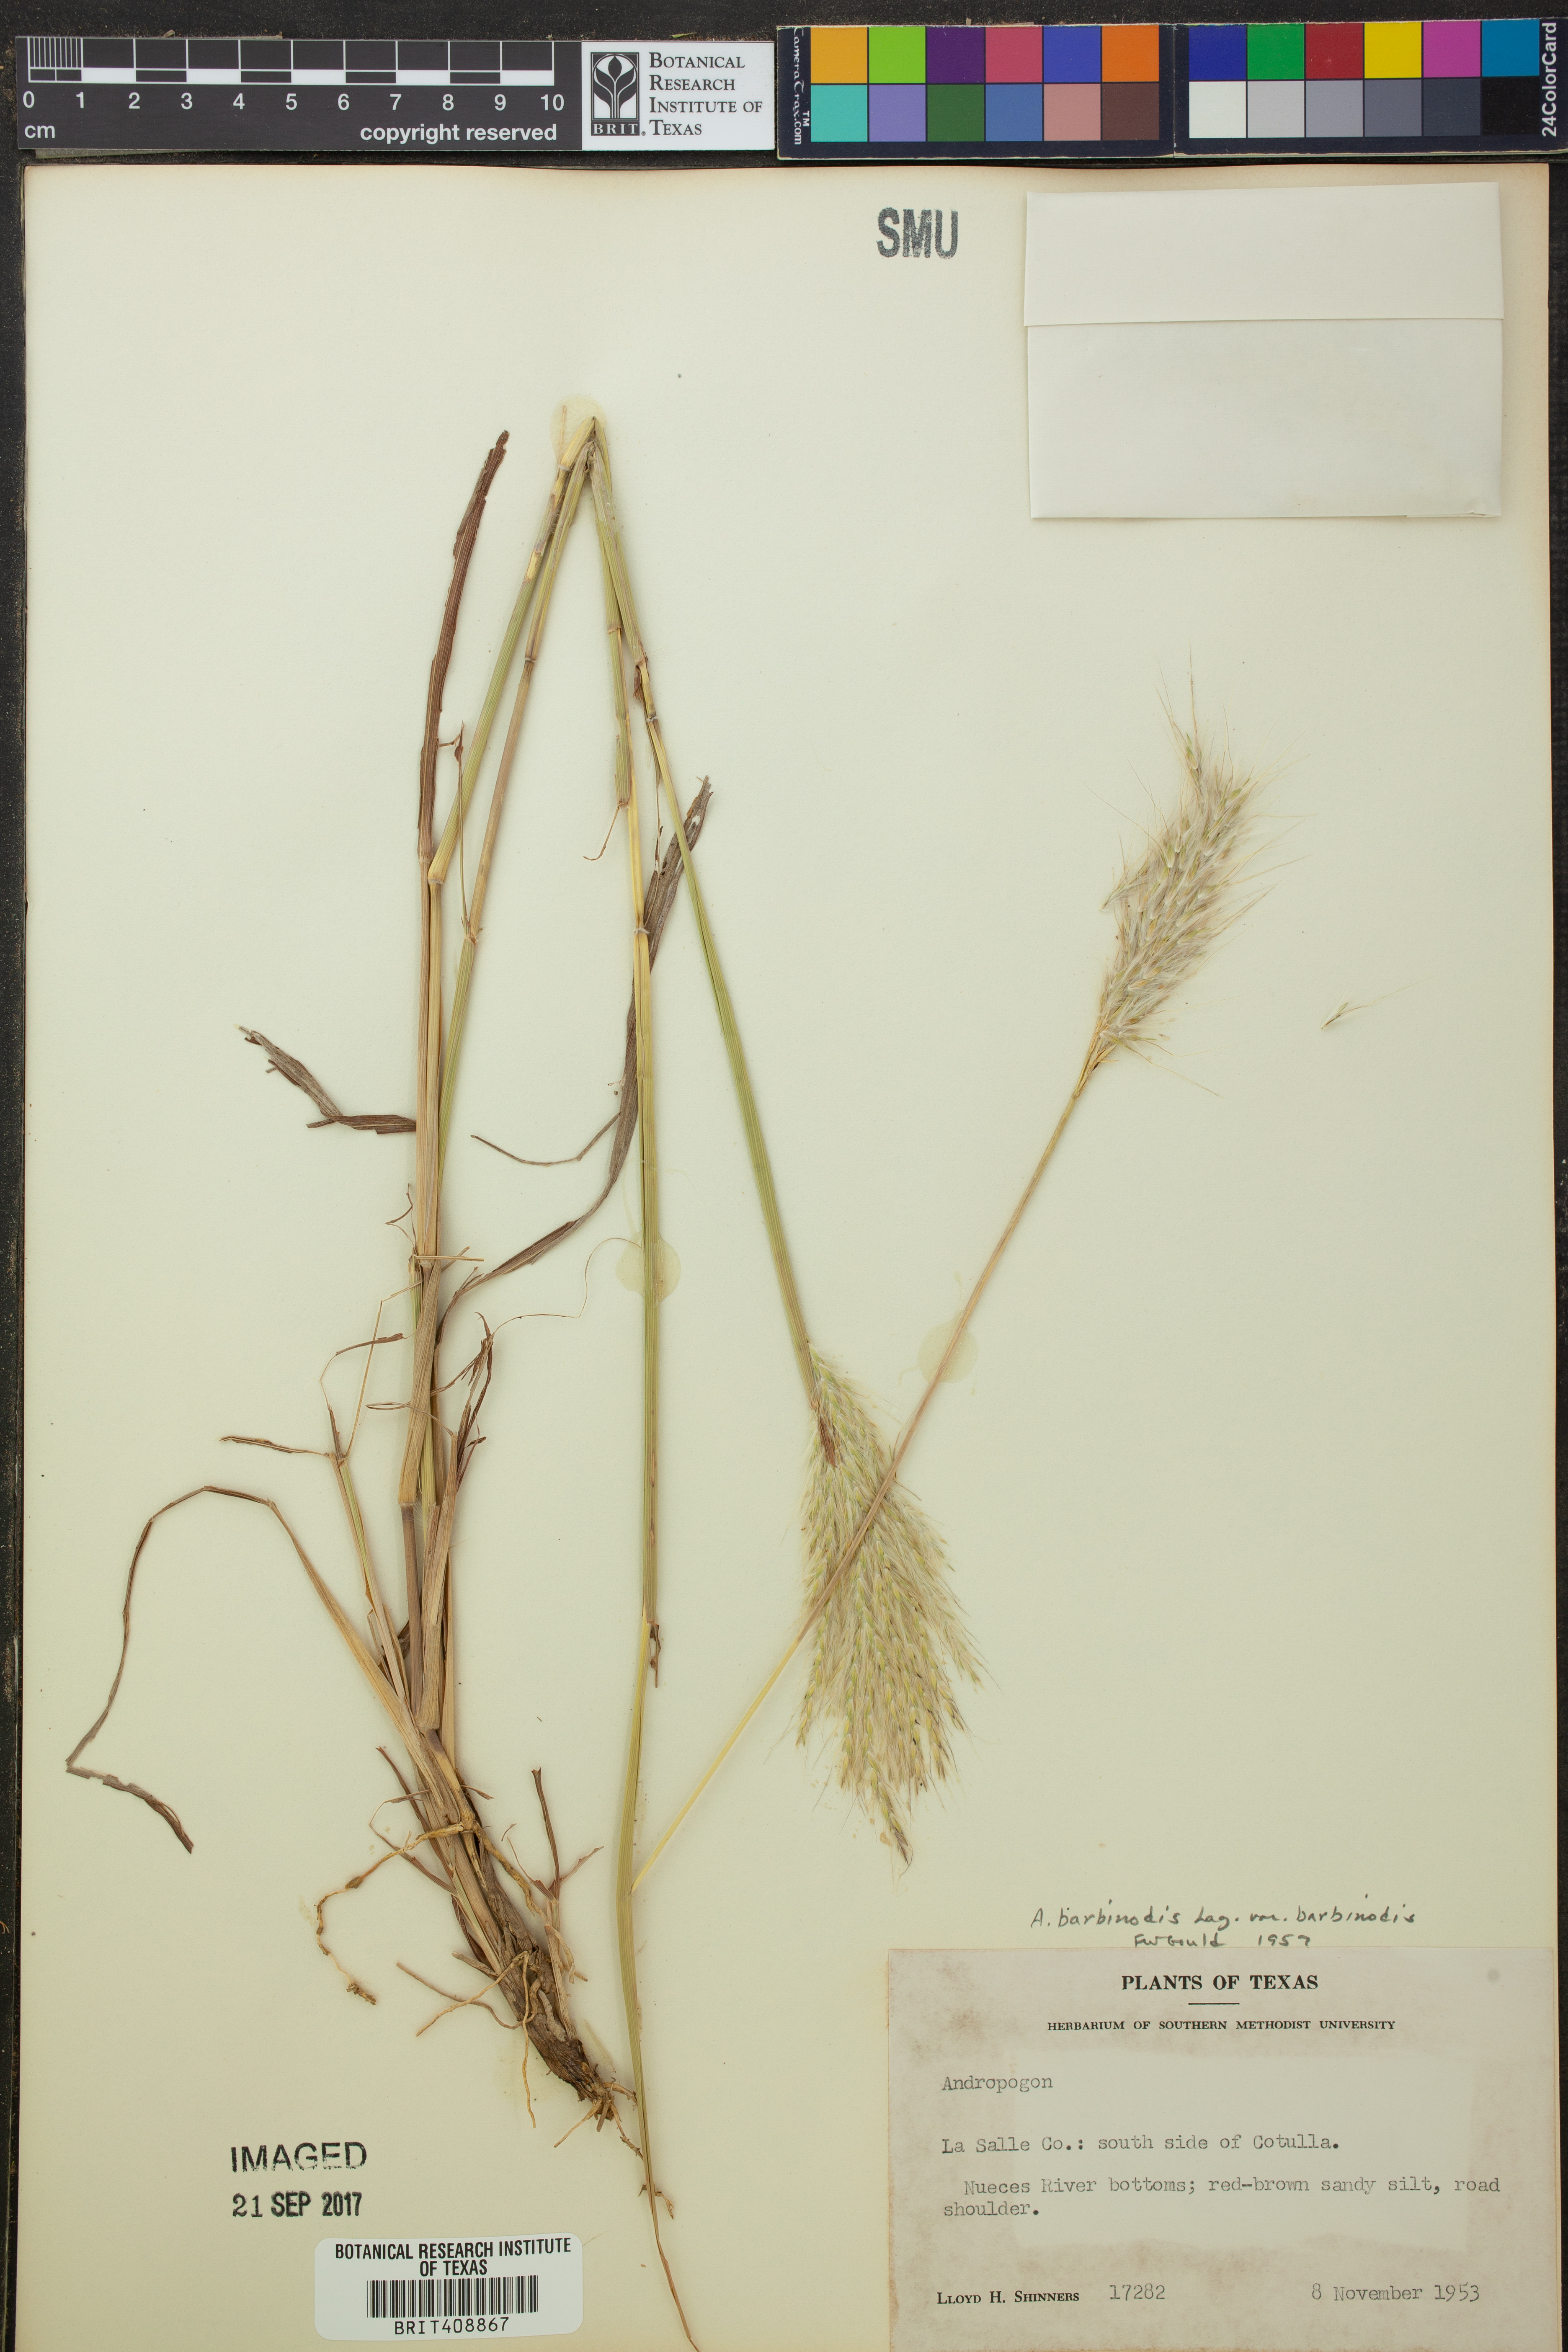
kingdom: Plantae
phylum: Tracheophyta
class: Liliopsida
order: Poales
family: Poaceae
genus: Bothriochloa
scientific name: Bothriochloa barbinodis
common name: Cane bluestem
